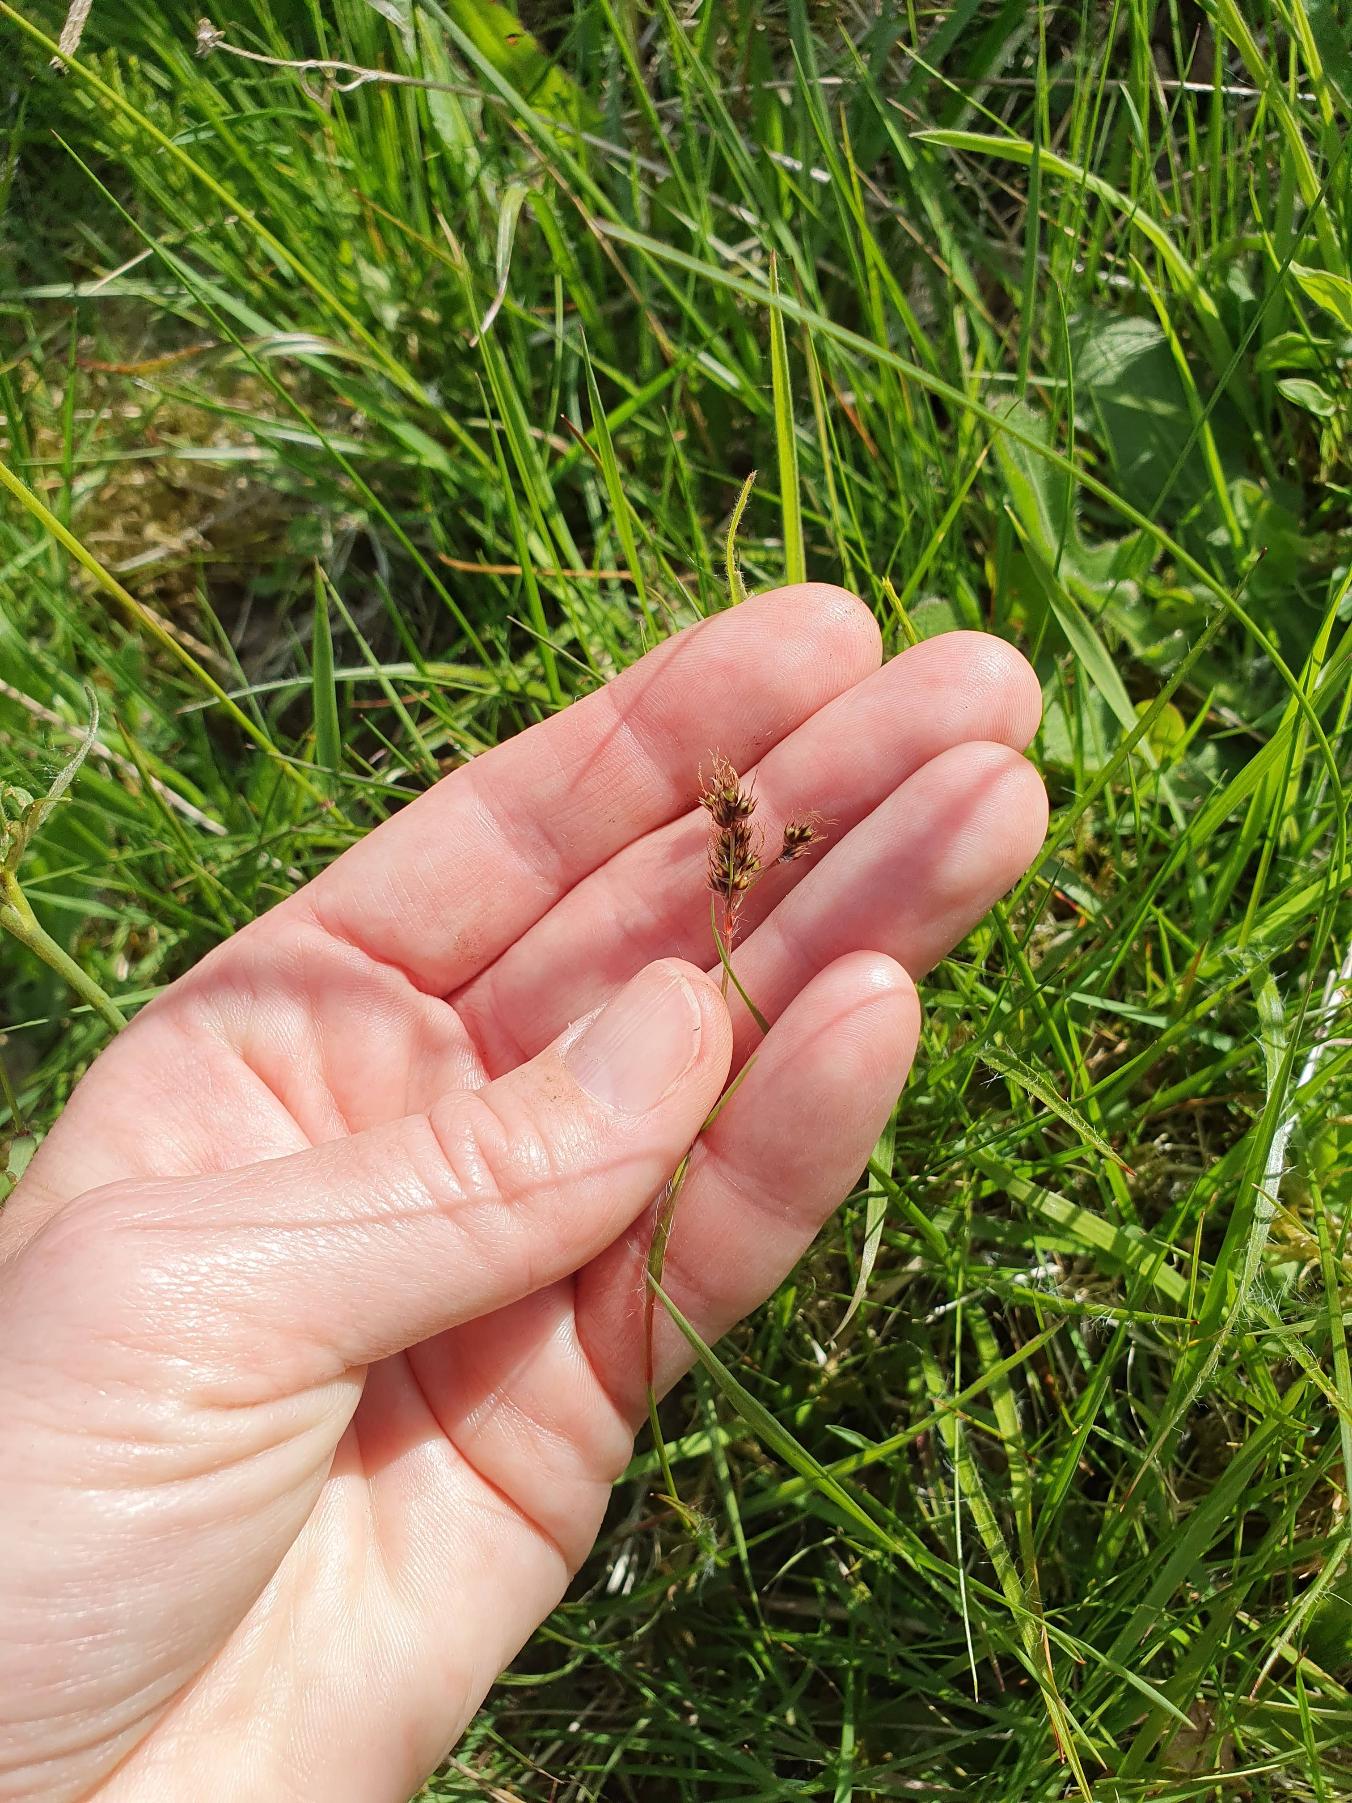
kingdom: Plantae
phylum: Tracheophyta
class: Liliopsida
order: Poales
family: Juncaceae
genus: Luzula
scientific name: Luzula campestris
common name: Mark-frytle
